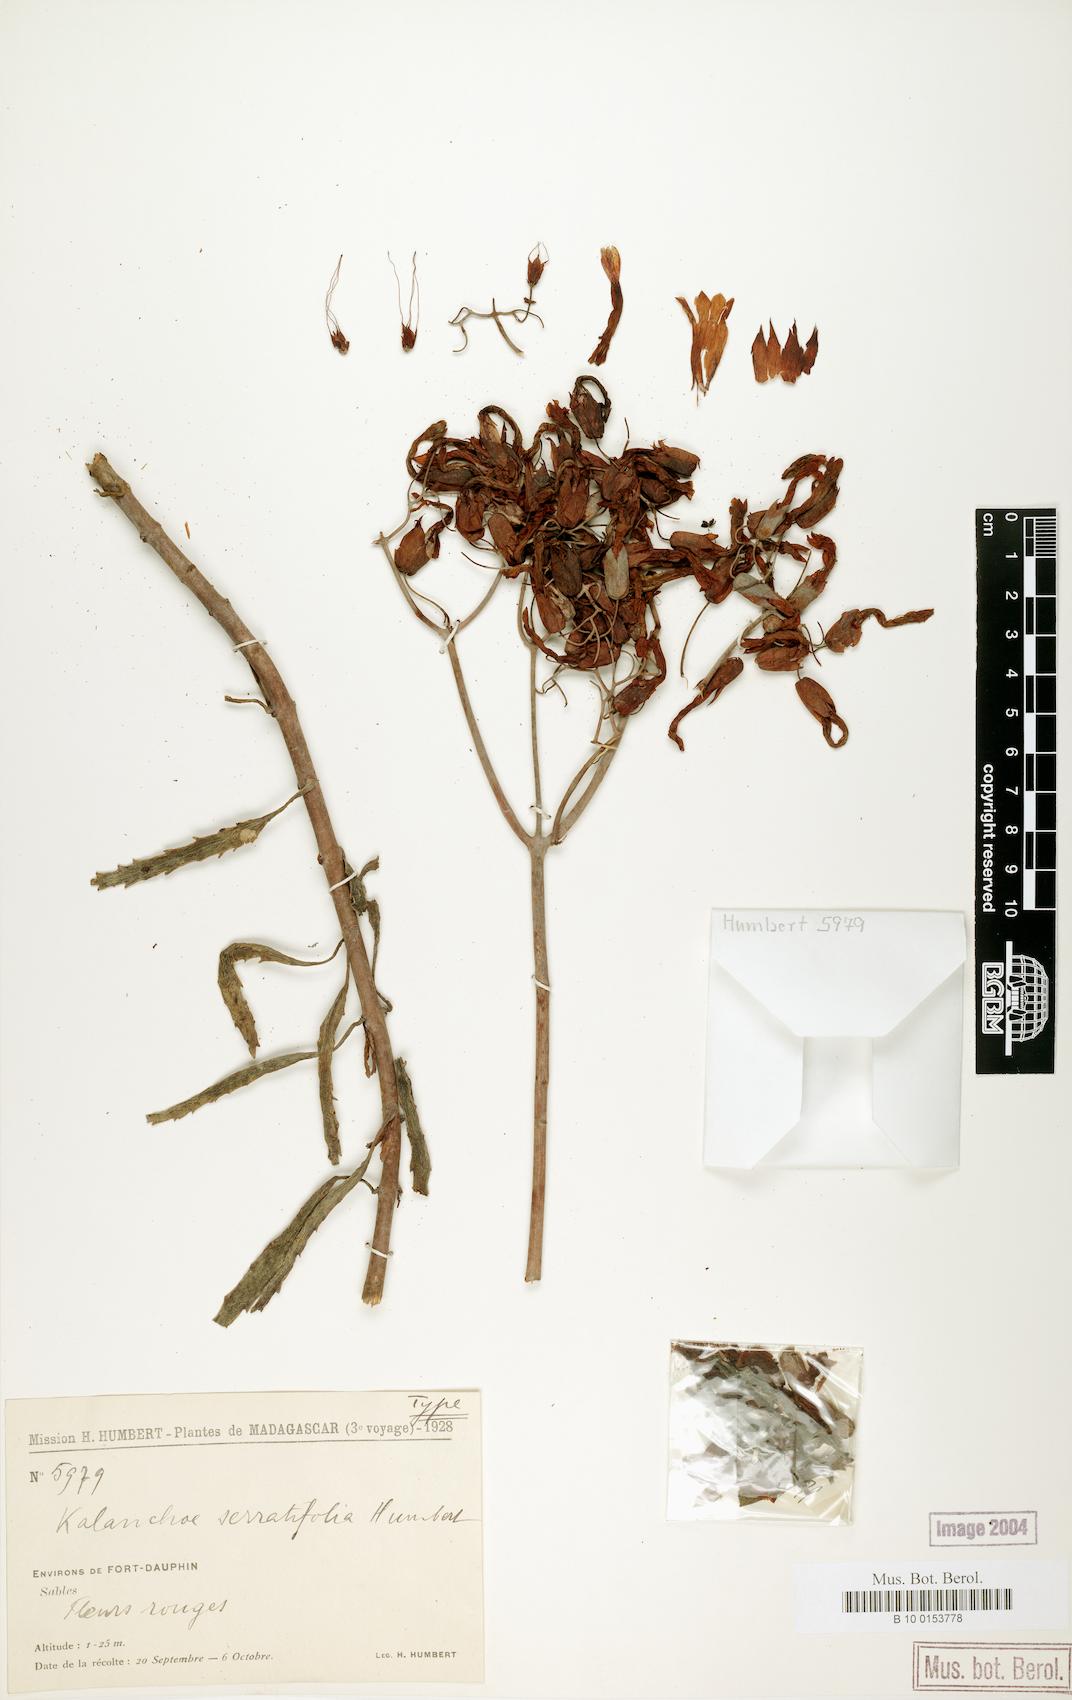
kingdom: Plantae
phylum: Tracheophyta
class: Magnoliopsida
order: Saxifragales
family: Crassulaceae
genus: Kalanchoe
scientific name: Kalanchoe rosei
